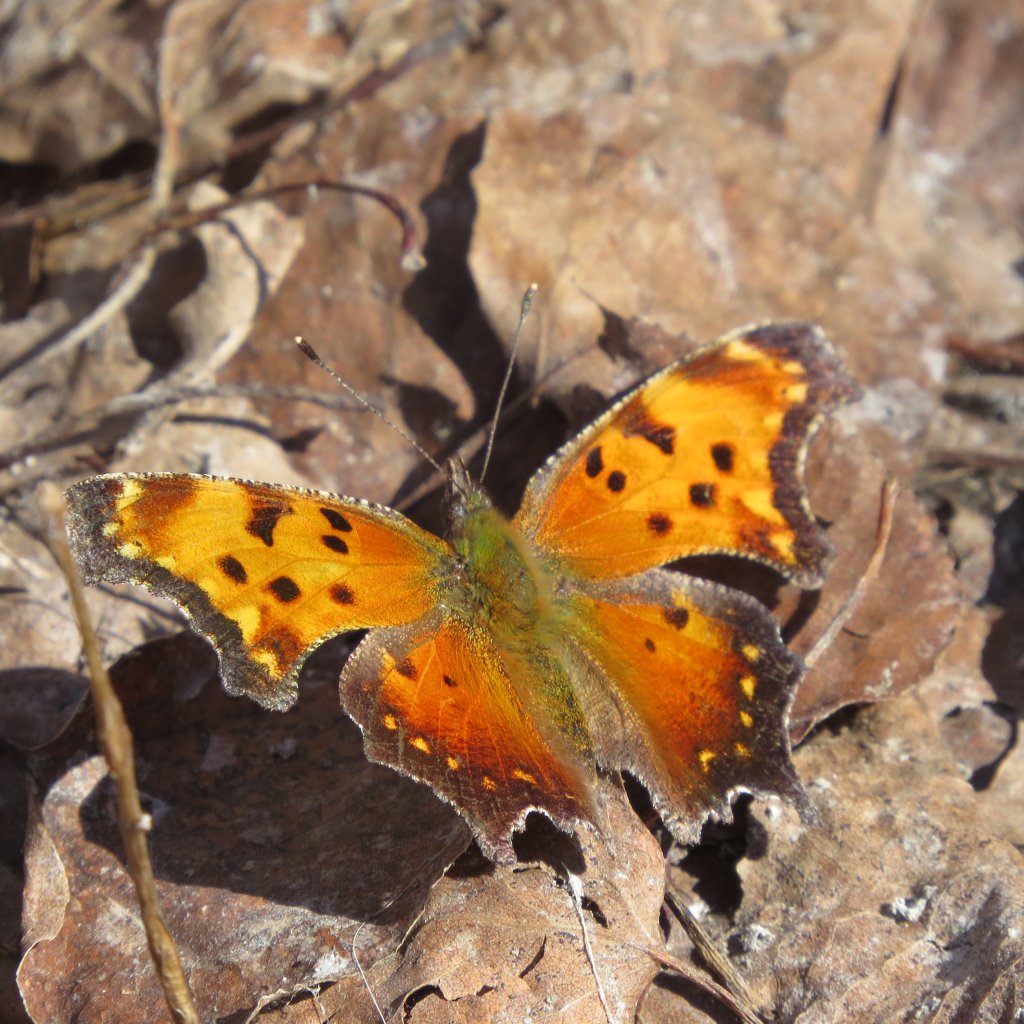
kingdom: Animalia
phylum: Arthropoda
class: Insecta
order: Lepidoptera
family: Nymphalidae
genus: Polygonia
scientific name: Polygonia gracilis
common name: Hoary Comma
